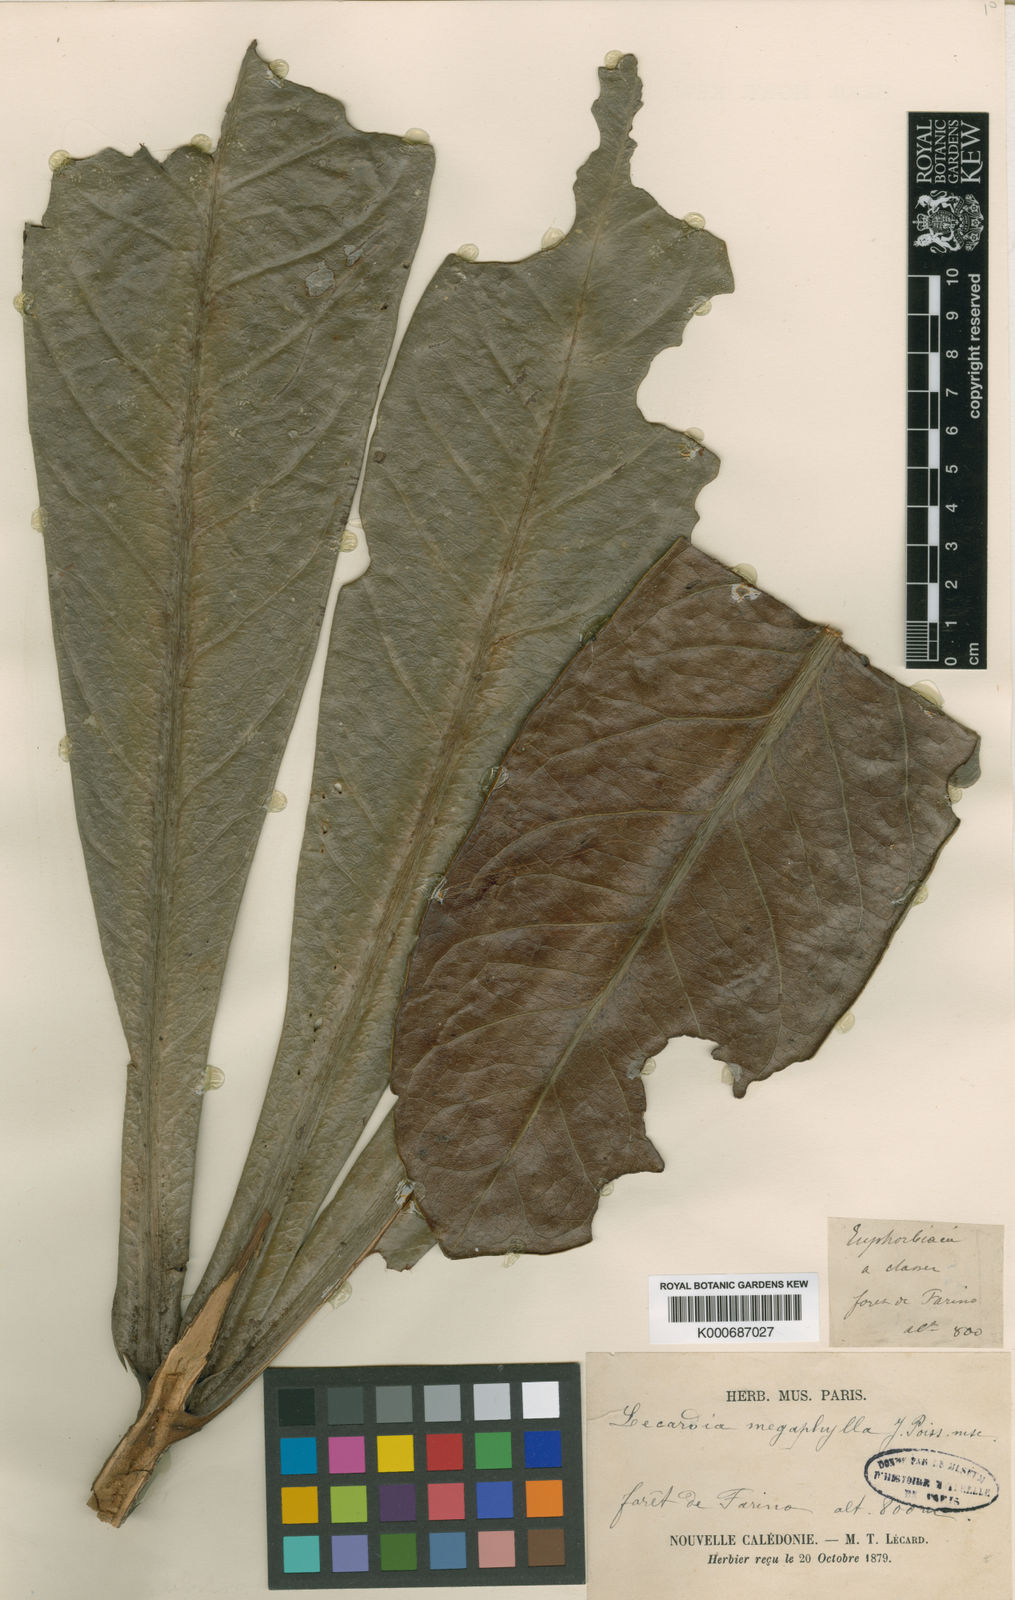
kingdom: Plantae
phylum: Tracheophyta
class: Magnoliopsida
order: Celastrales
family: Celastraceae
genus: Salaciopsis
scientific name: Salaciopsis megaphylla
